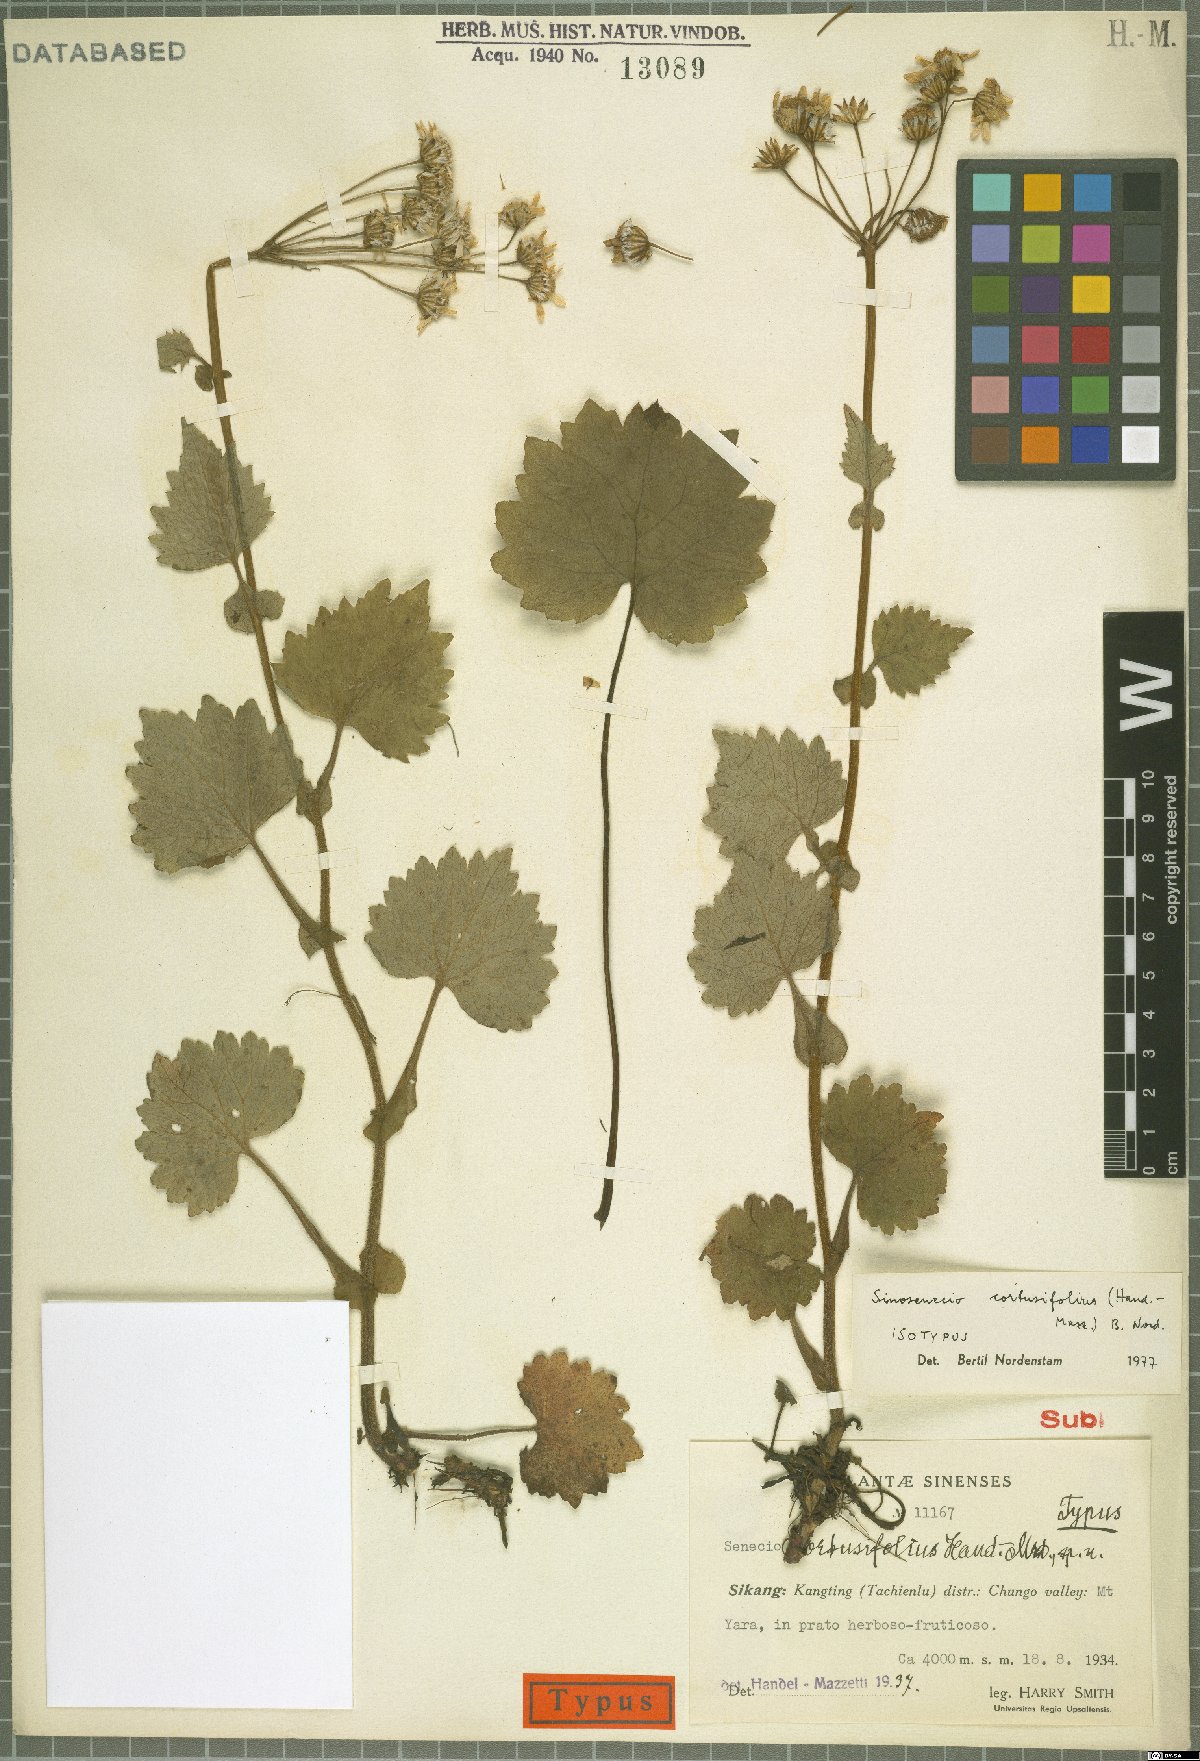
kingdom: Plantae
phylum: Tracheophyta
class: Magnoliopsida
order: Asterales
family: Asteraceae
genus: Sinosenecio
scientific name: Sinosenecio euosmus
